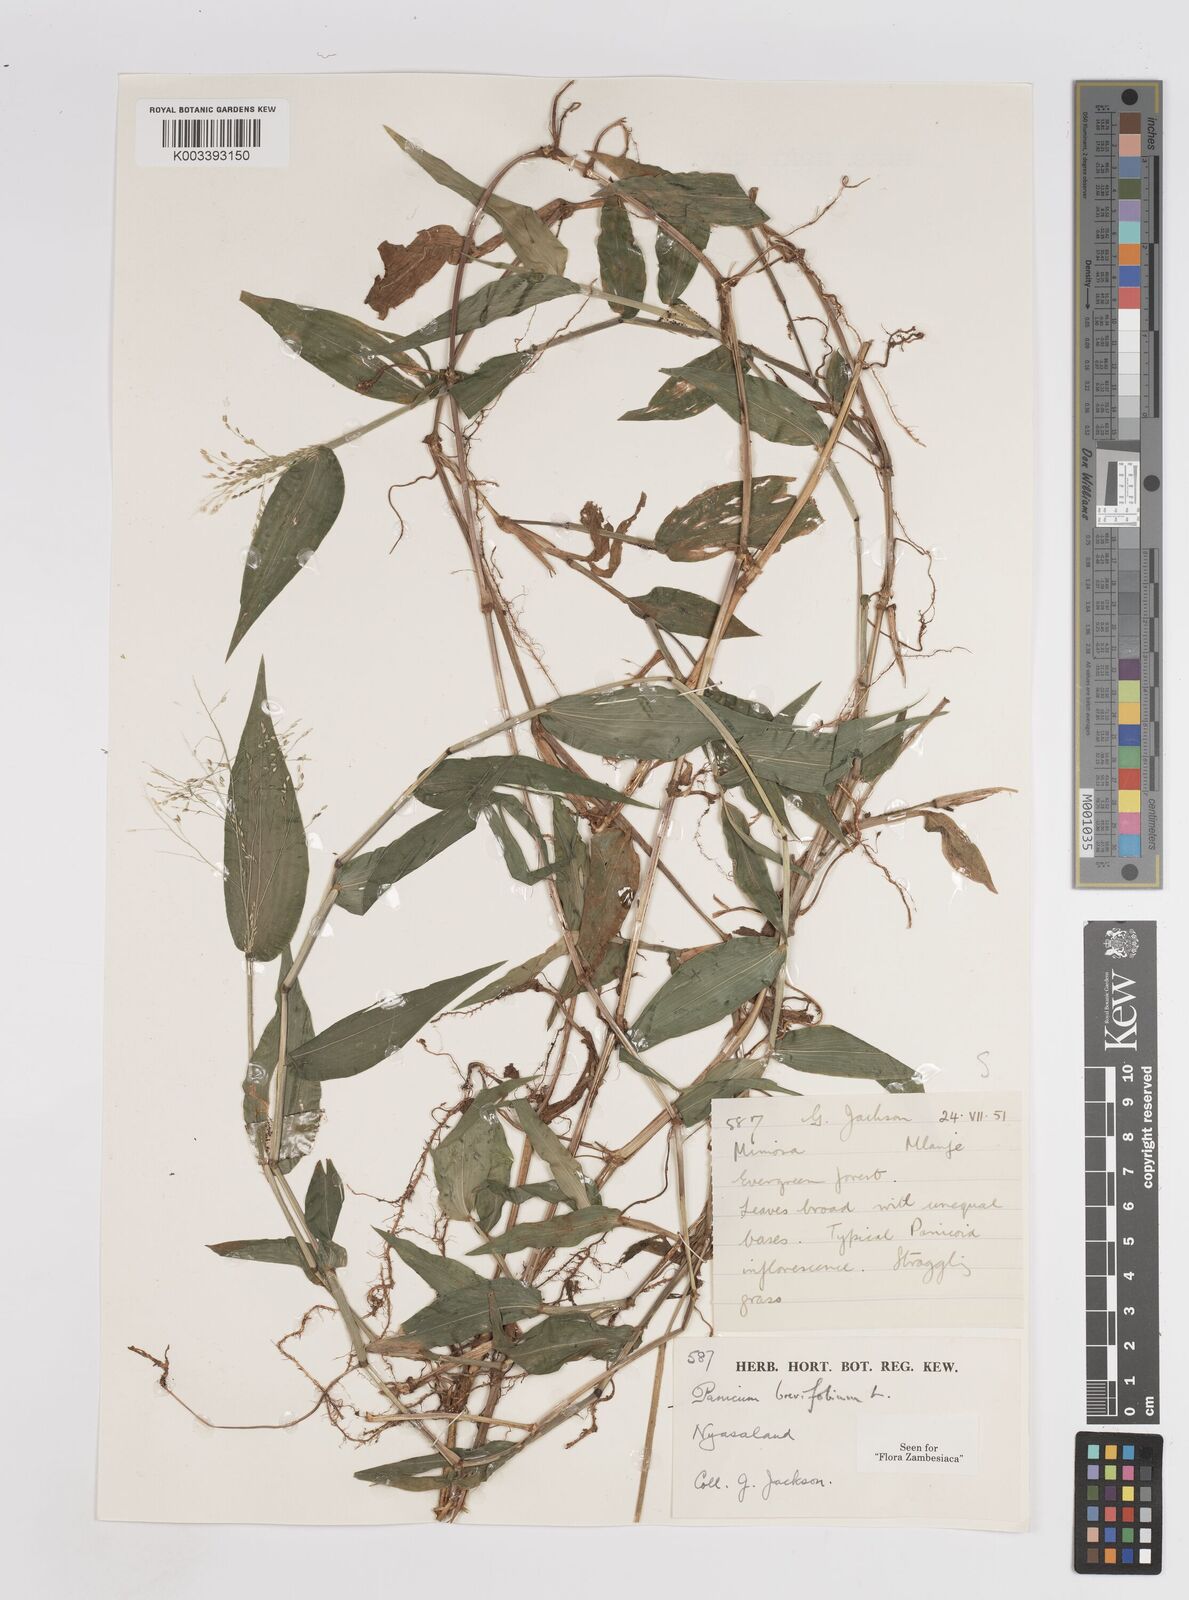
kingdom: Plantae
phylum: Tracheophyta
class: Liliopsida
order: Poales
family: Poaceae
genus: Panicum
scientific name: Panicum brevifolium
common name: Shortleaf panic grass
